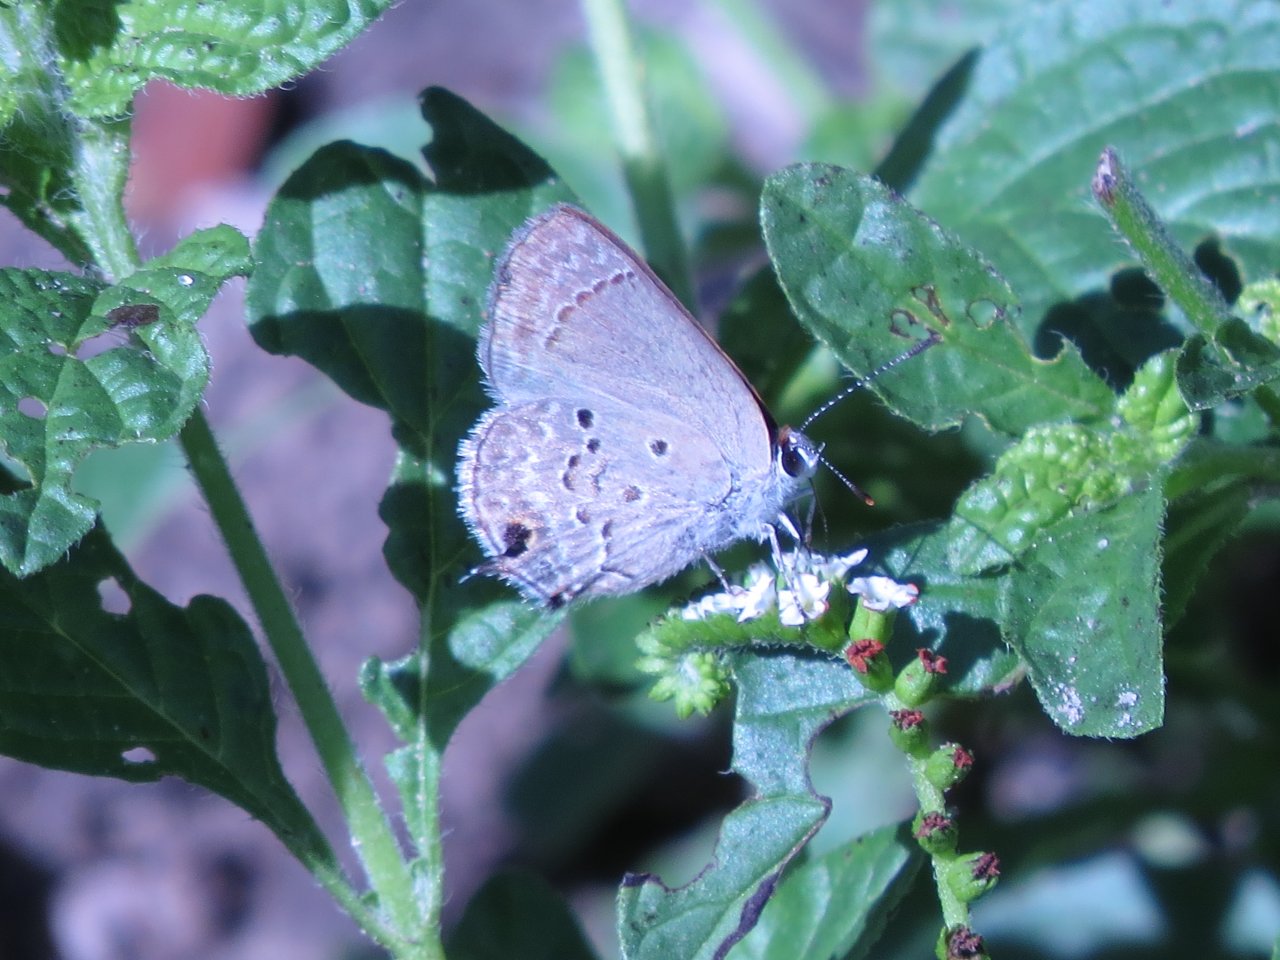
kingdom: Animalia
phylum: Arthropoda
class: Insecta
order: Lepidoptera
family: Lycaenidae
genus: Callicista
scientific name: Callicista columella
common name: Mallow Scrub-Hairstreak
